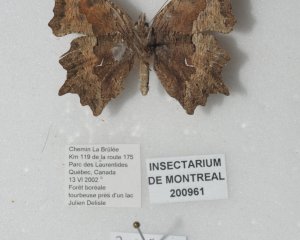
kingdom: Animalia
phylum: Arthropoda
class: Insecta
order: Lepidoptera
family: Nymphalidae
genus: Polygonia
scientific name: Polygonia gracilis
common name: Hoary Comma
